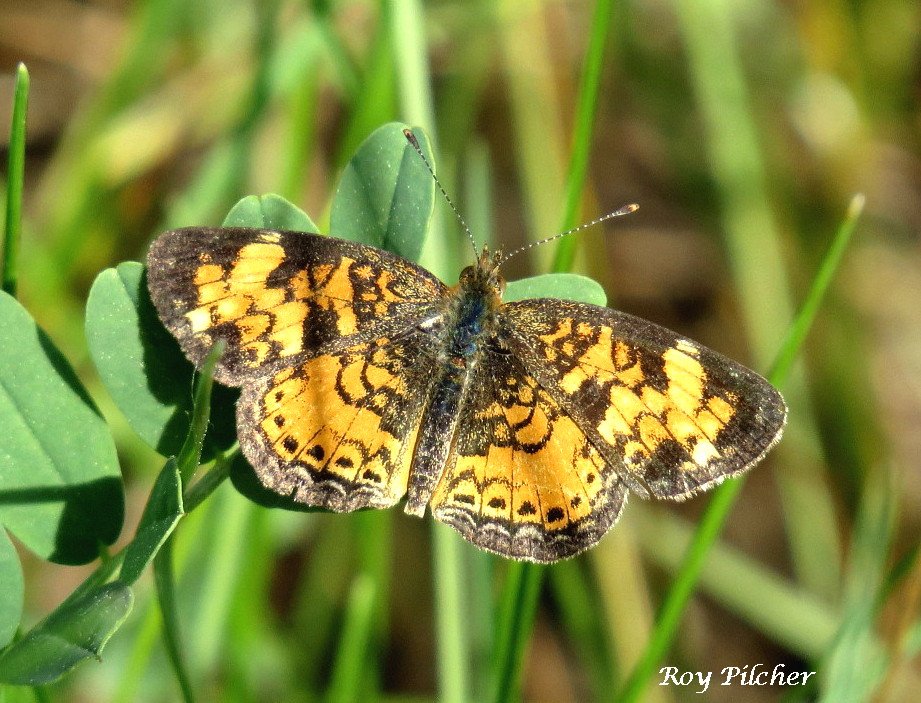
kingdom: Animalia
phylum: Arthropoda
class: Insecta
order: Lepidoptera
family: Nymphalidae
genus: Phyciodes
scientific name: Phyciodes tharos
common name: Northern Crescent
